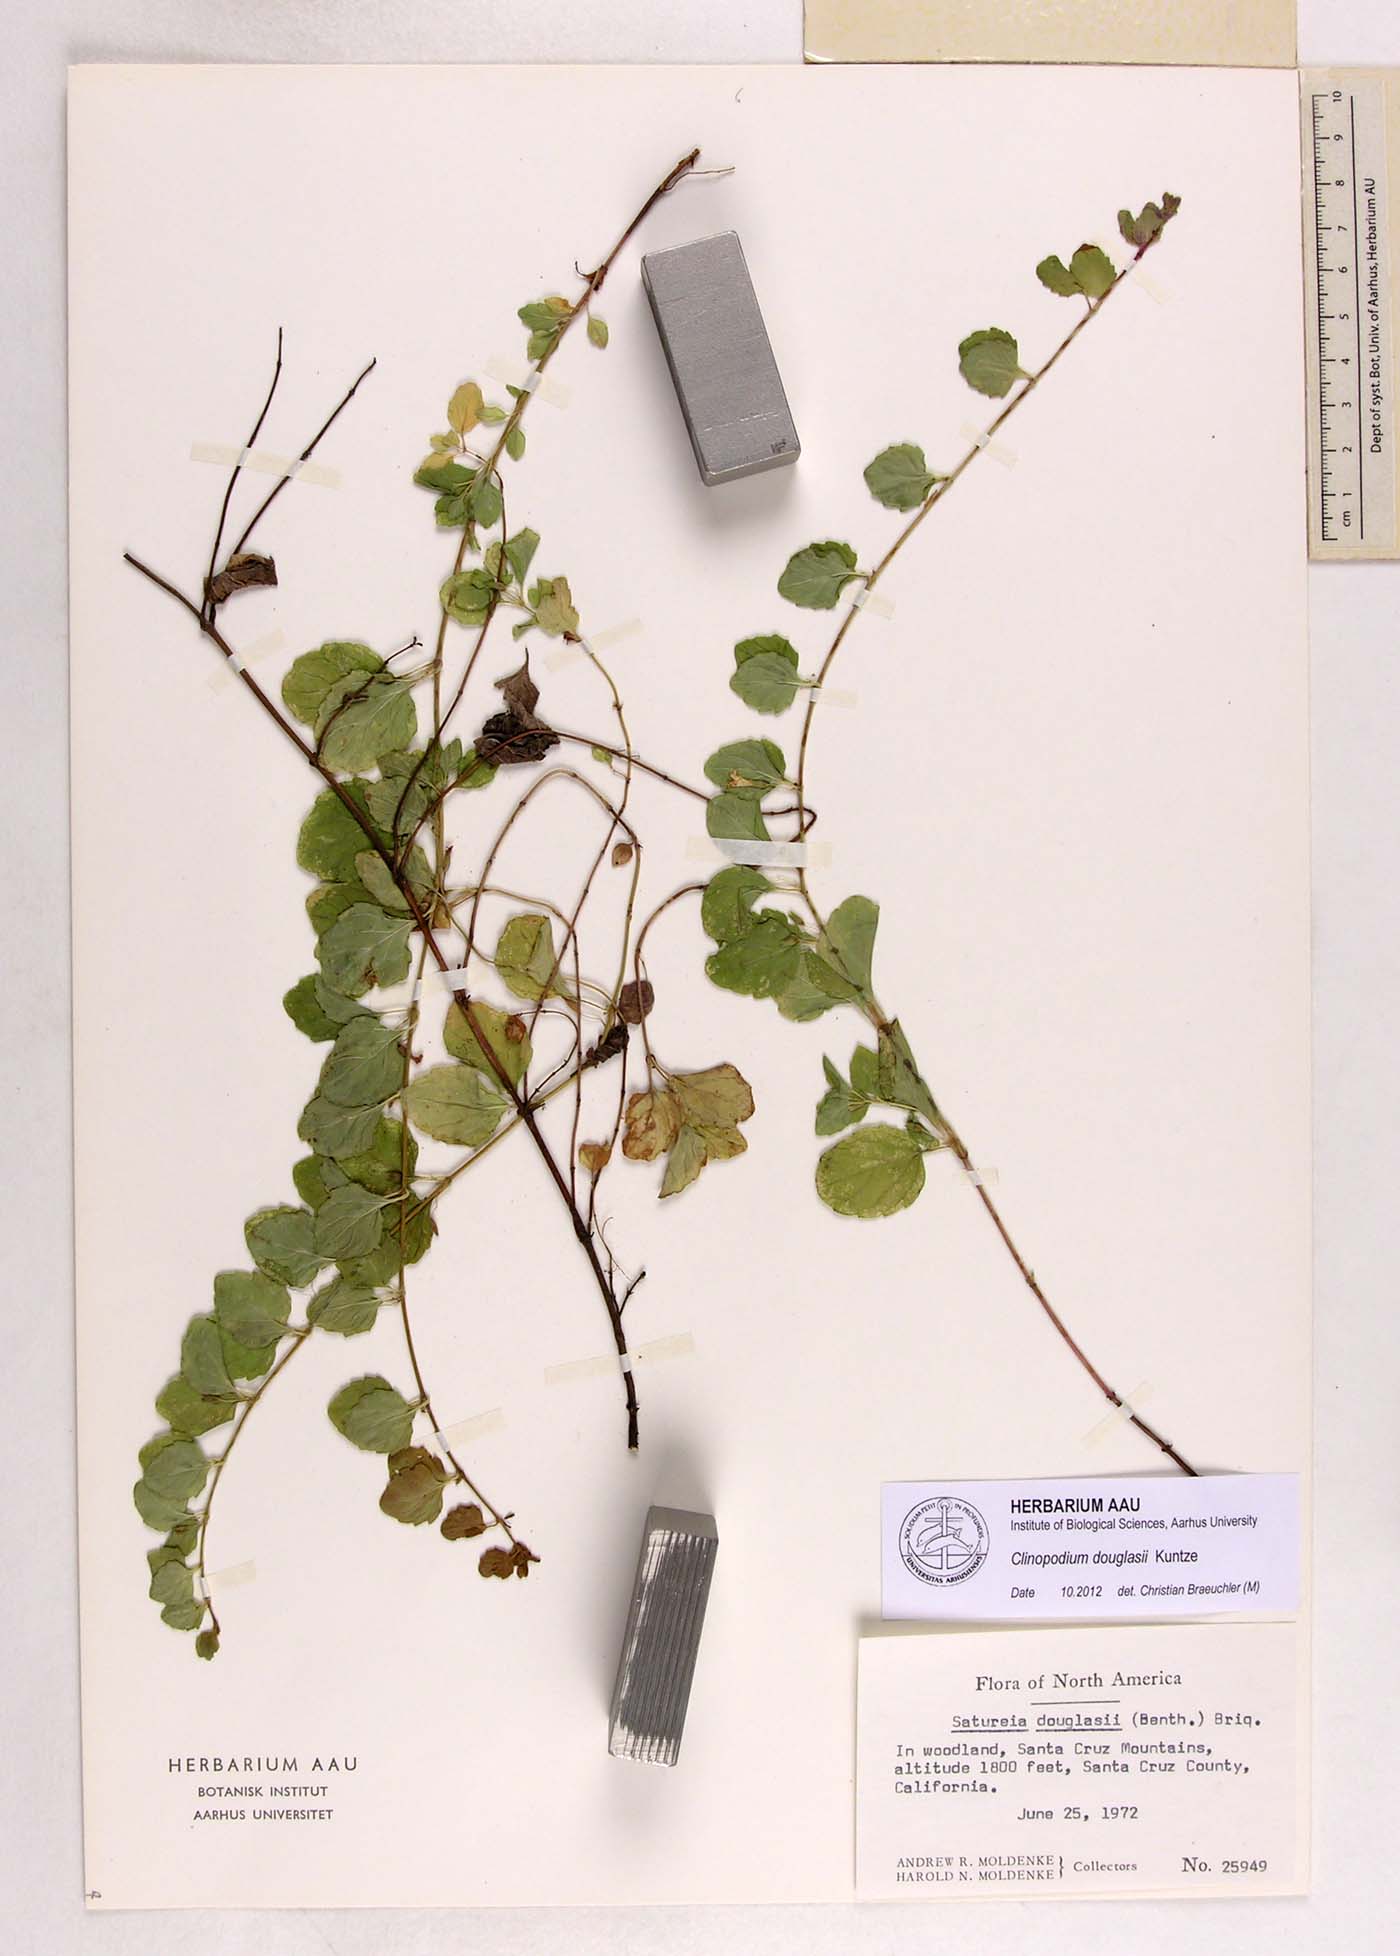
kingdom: Plantae
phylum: Tracheophyta
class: Magnoliopsida
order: Lamiales
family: Lamiaceae
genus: Micromeria
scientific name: Micromeria douglasii
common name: Yerba buena
